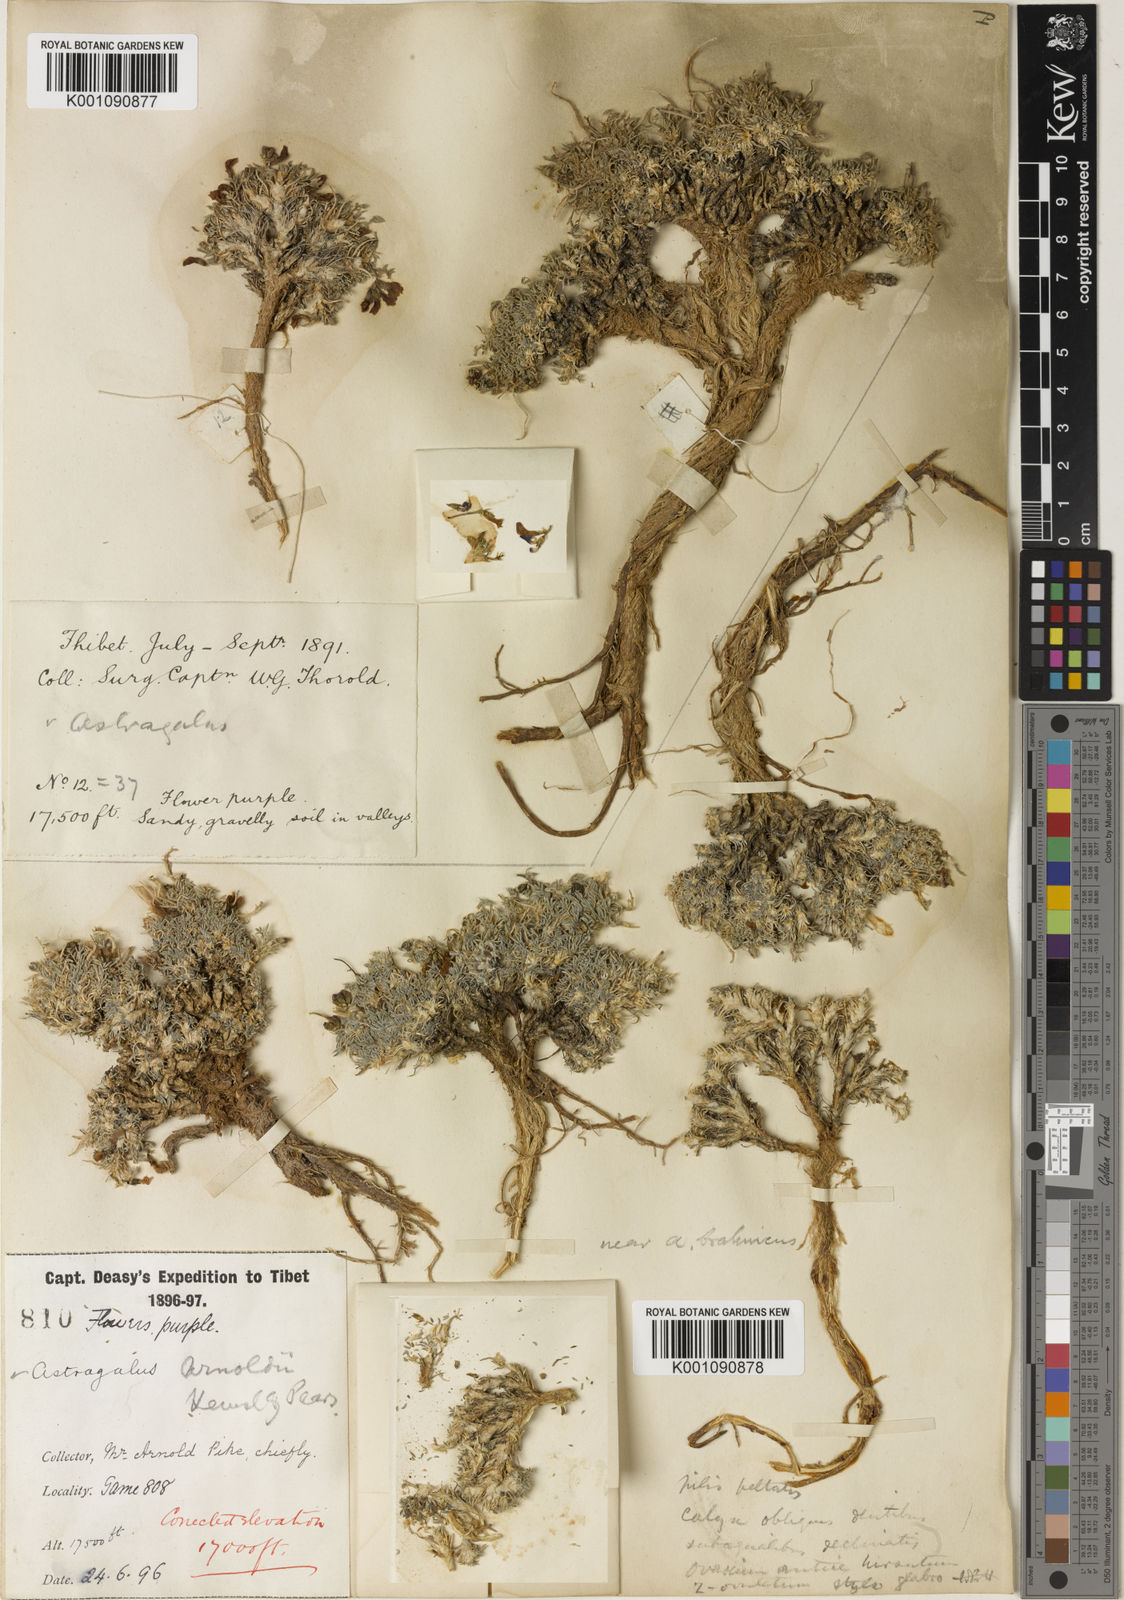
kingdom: Plantae
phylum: Tracheophyta
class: Magnoliopsida
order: Fabales
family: Fabaceae
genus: Astragalus
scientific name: Astragalus
